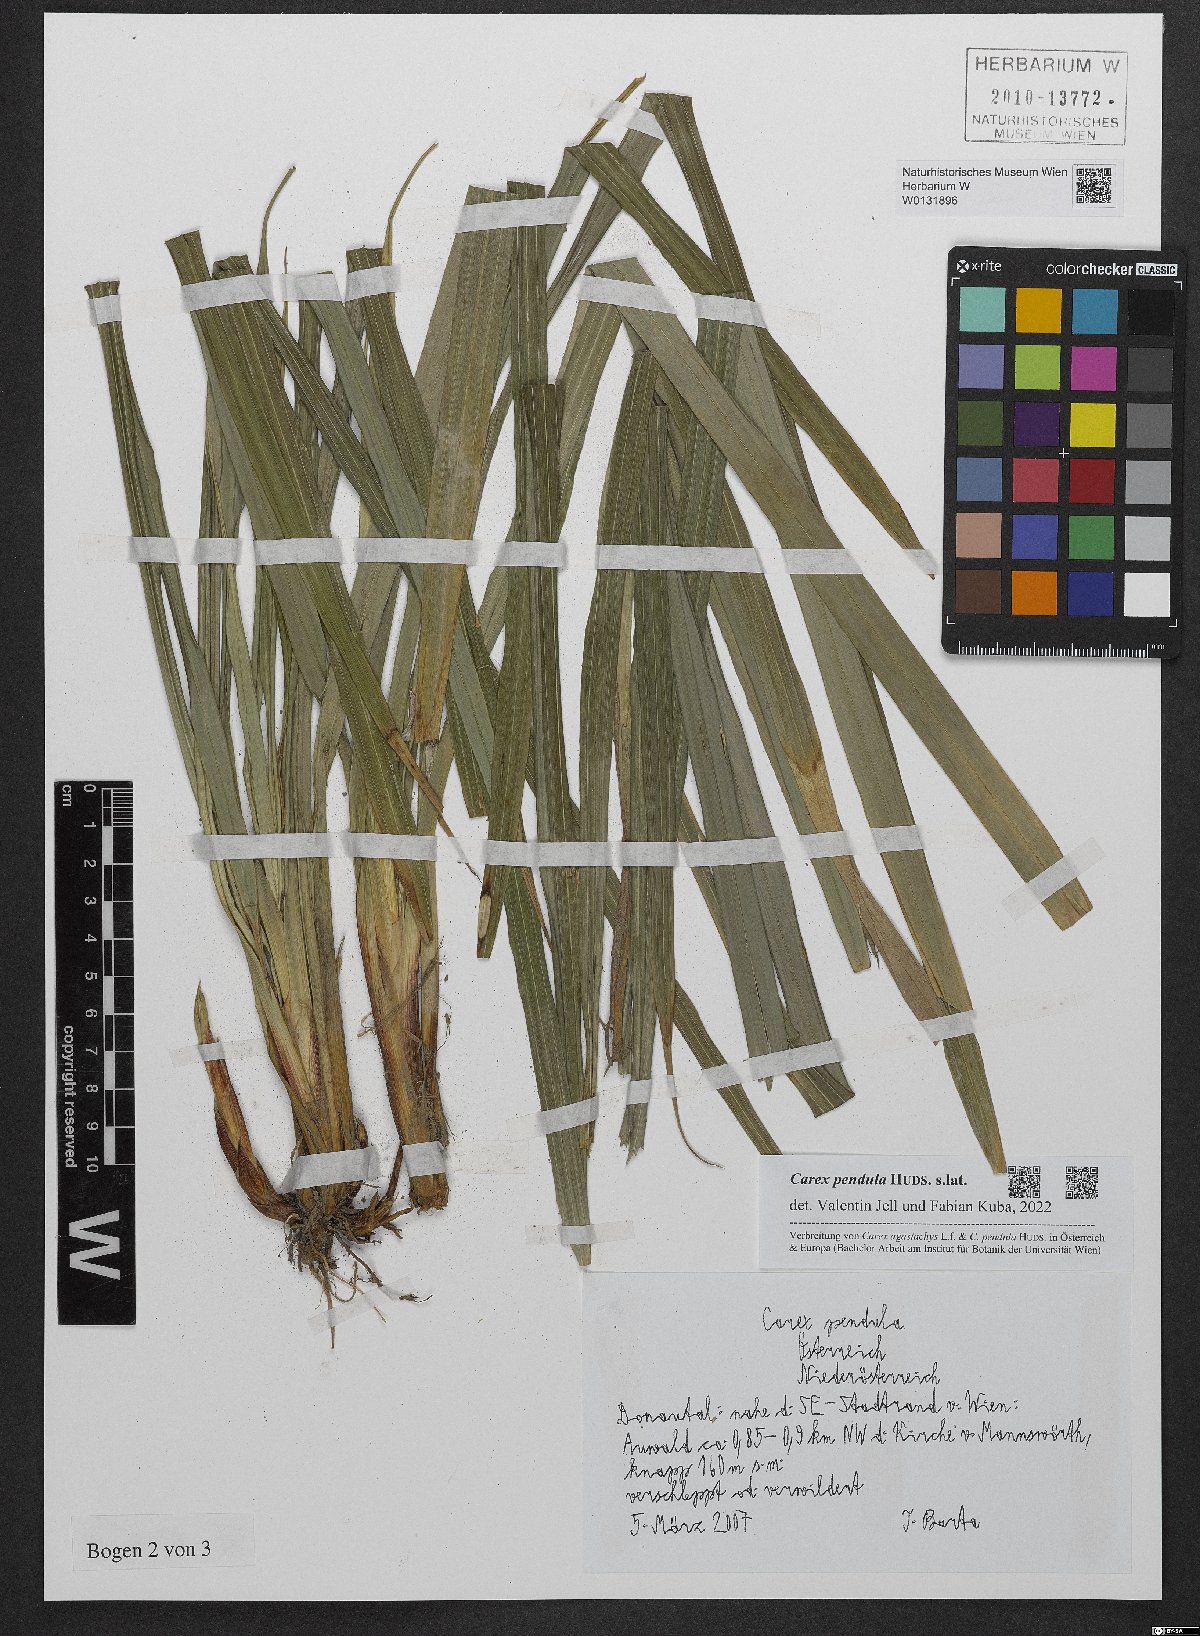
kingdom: Plantae
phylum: Tracheophyta
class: Liliopsida
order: Poales
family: Cyperaceae
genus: Carex
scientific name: Carex pendula
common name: Pendulous sedge
